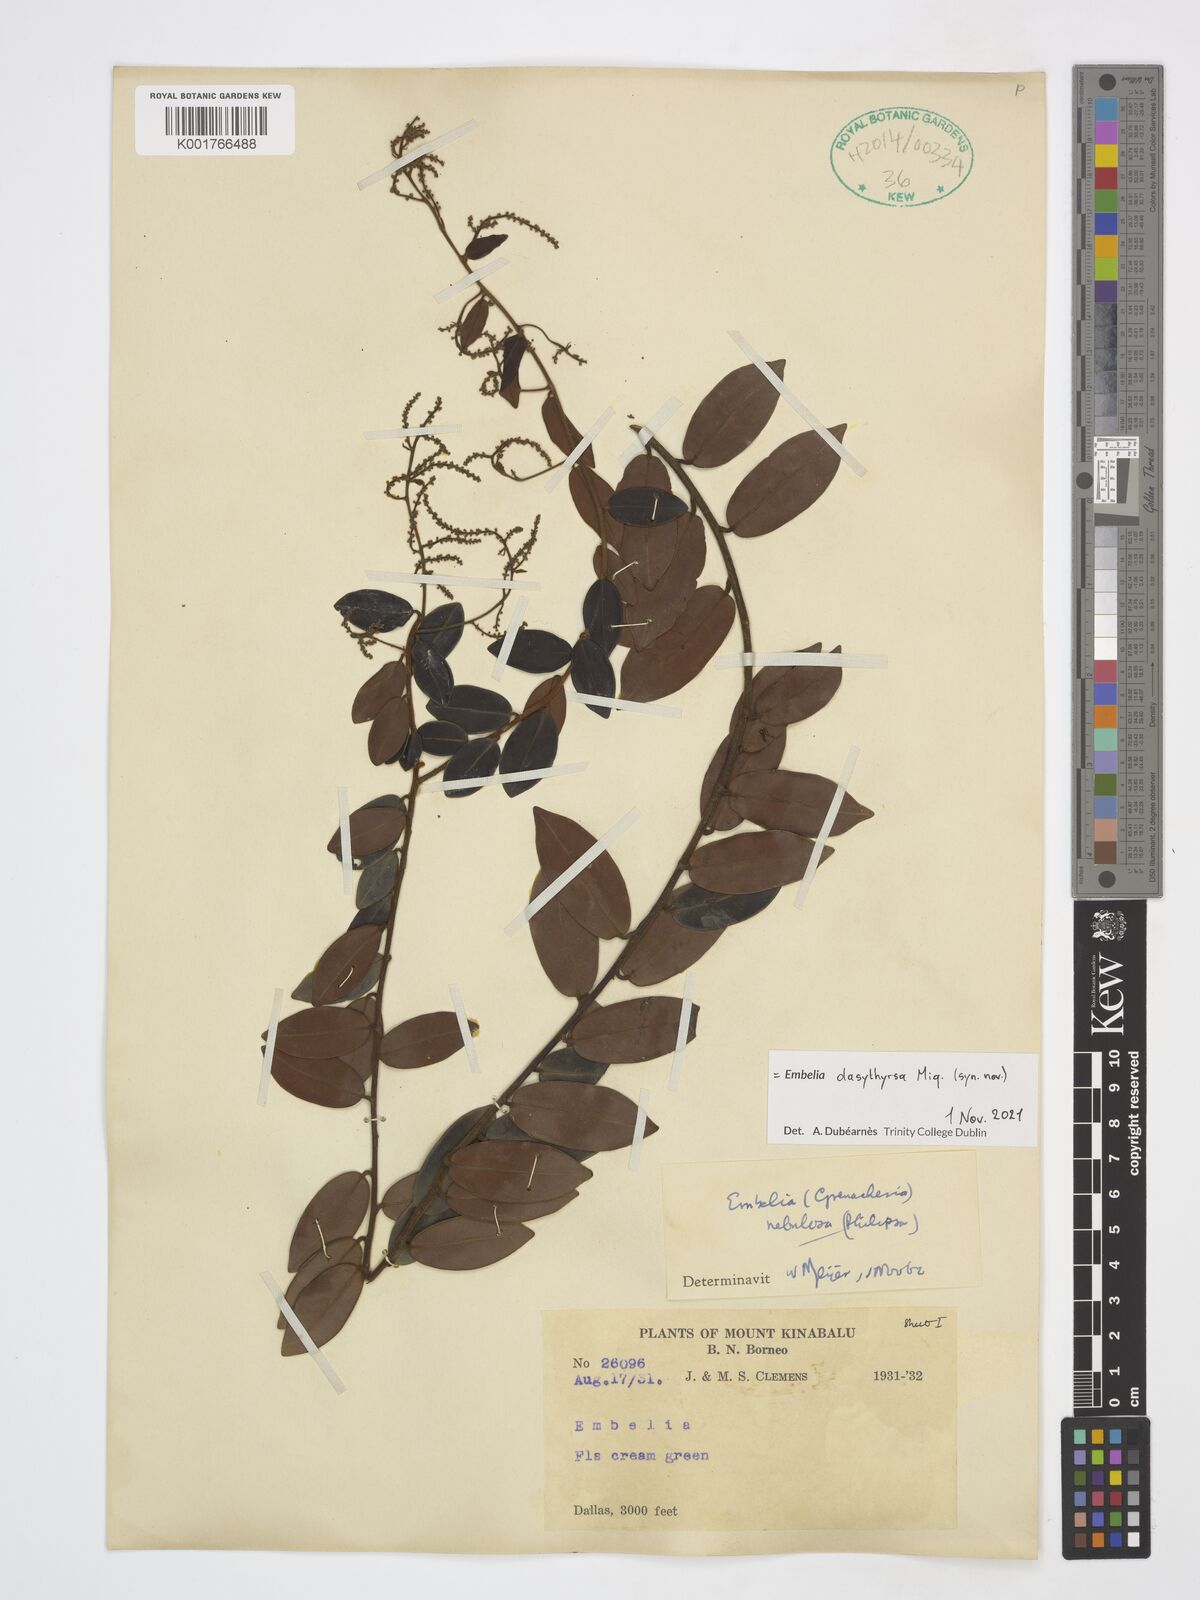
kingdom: Plantae
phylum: Tracheophyta
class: Magnoliopsida
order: Ericales
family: Primulaceae
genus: Embelia
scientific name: Embelia dasythyrsa
